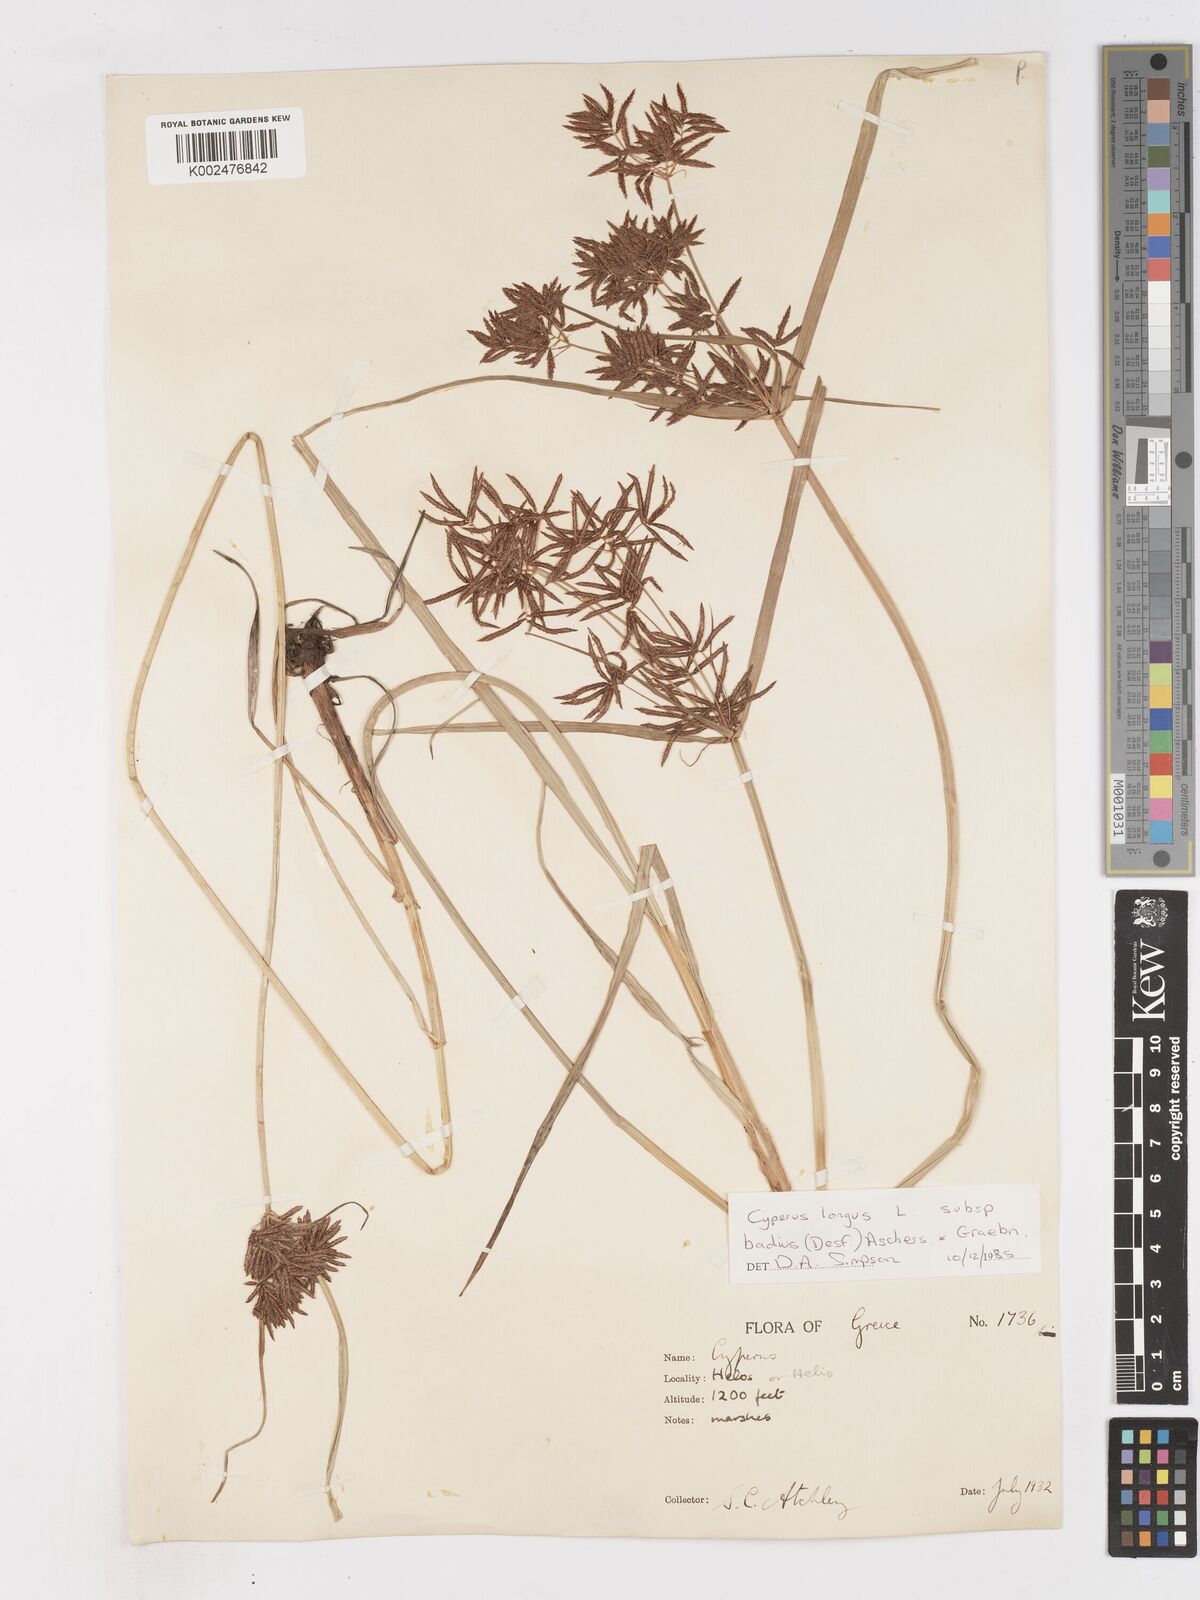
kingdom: Plantae
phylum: Tracheophyta
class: Liliopsida
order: Poales
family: Cyperaceae
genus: Cyperus
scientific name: Cyperus longus
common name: Galingale
